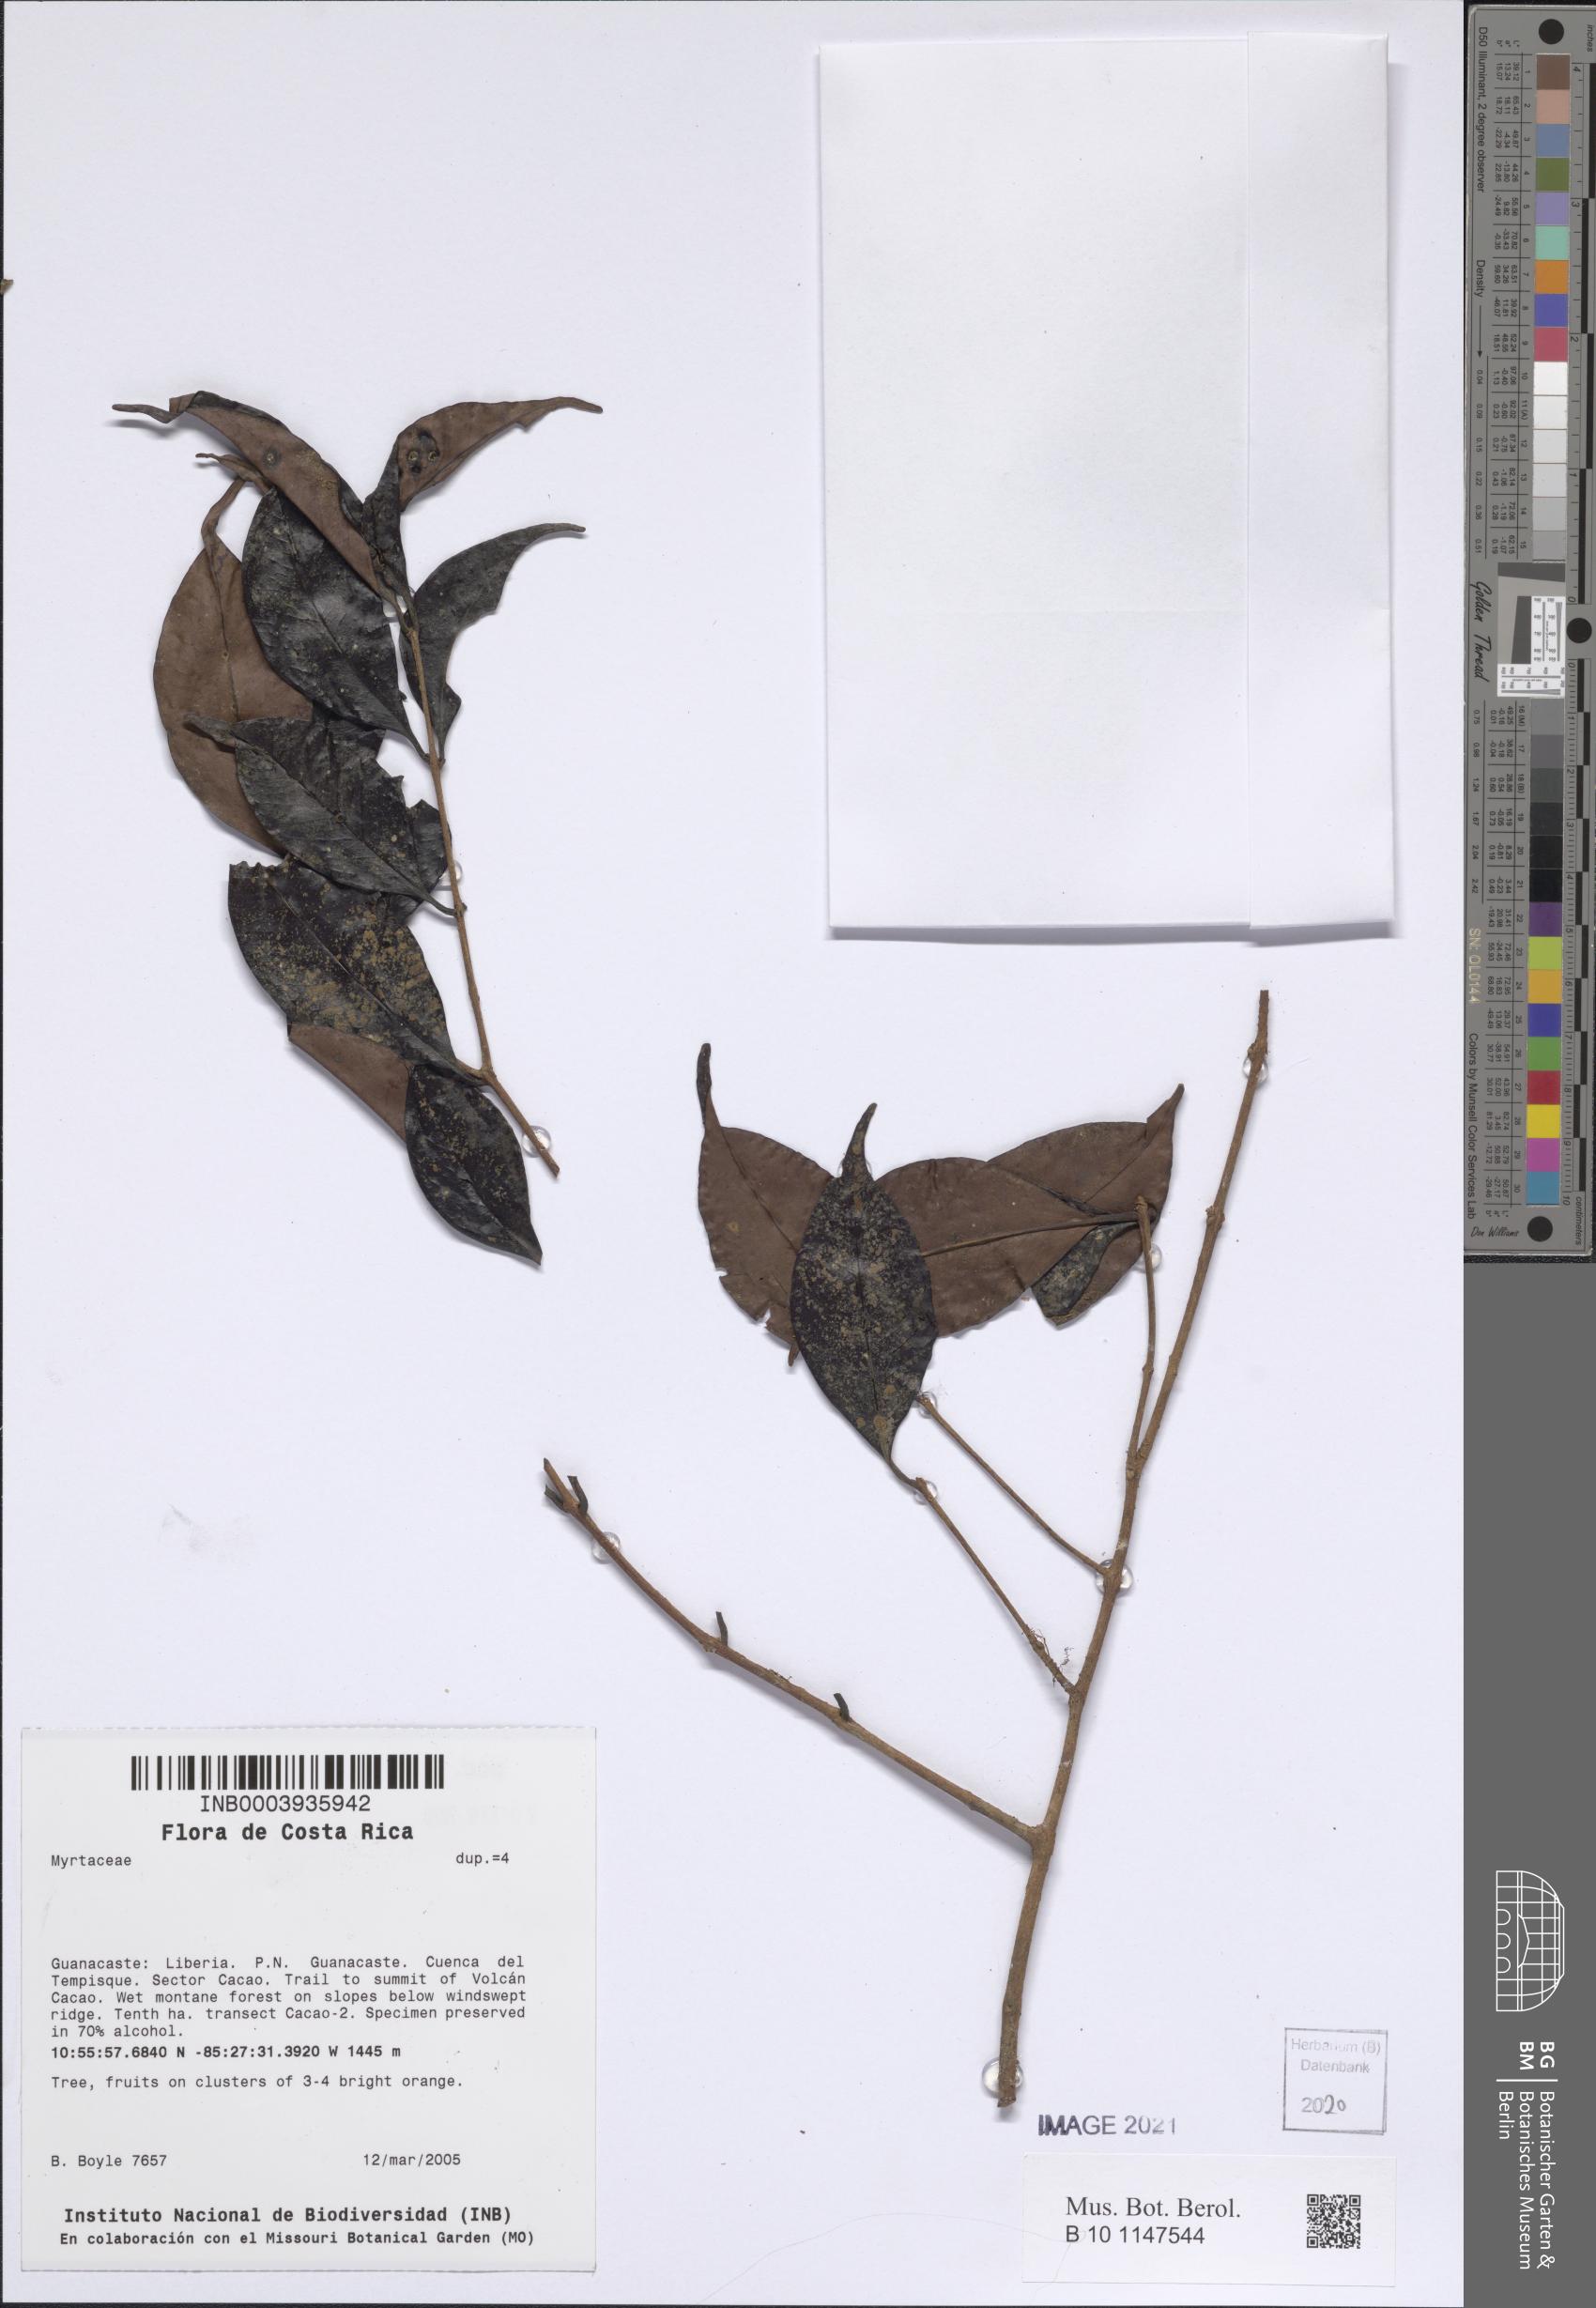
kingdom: Plantae
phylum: Tracheophyta
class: Magnoliopsida
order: Myrtales
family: Myrtaceae
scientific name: Myrtaceae
